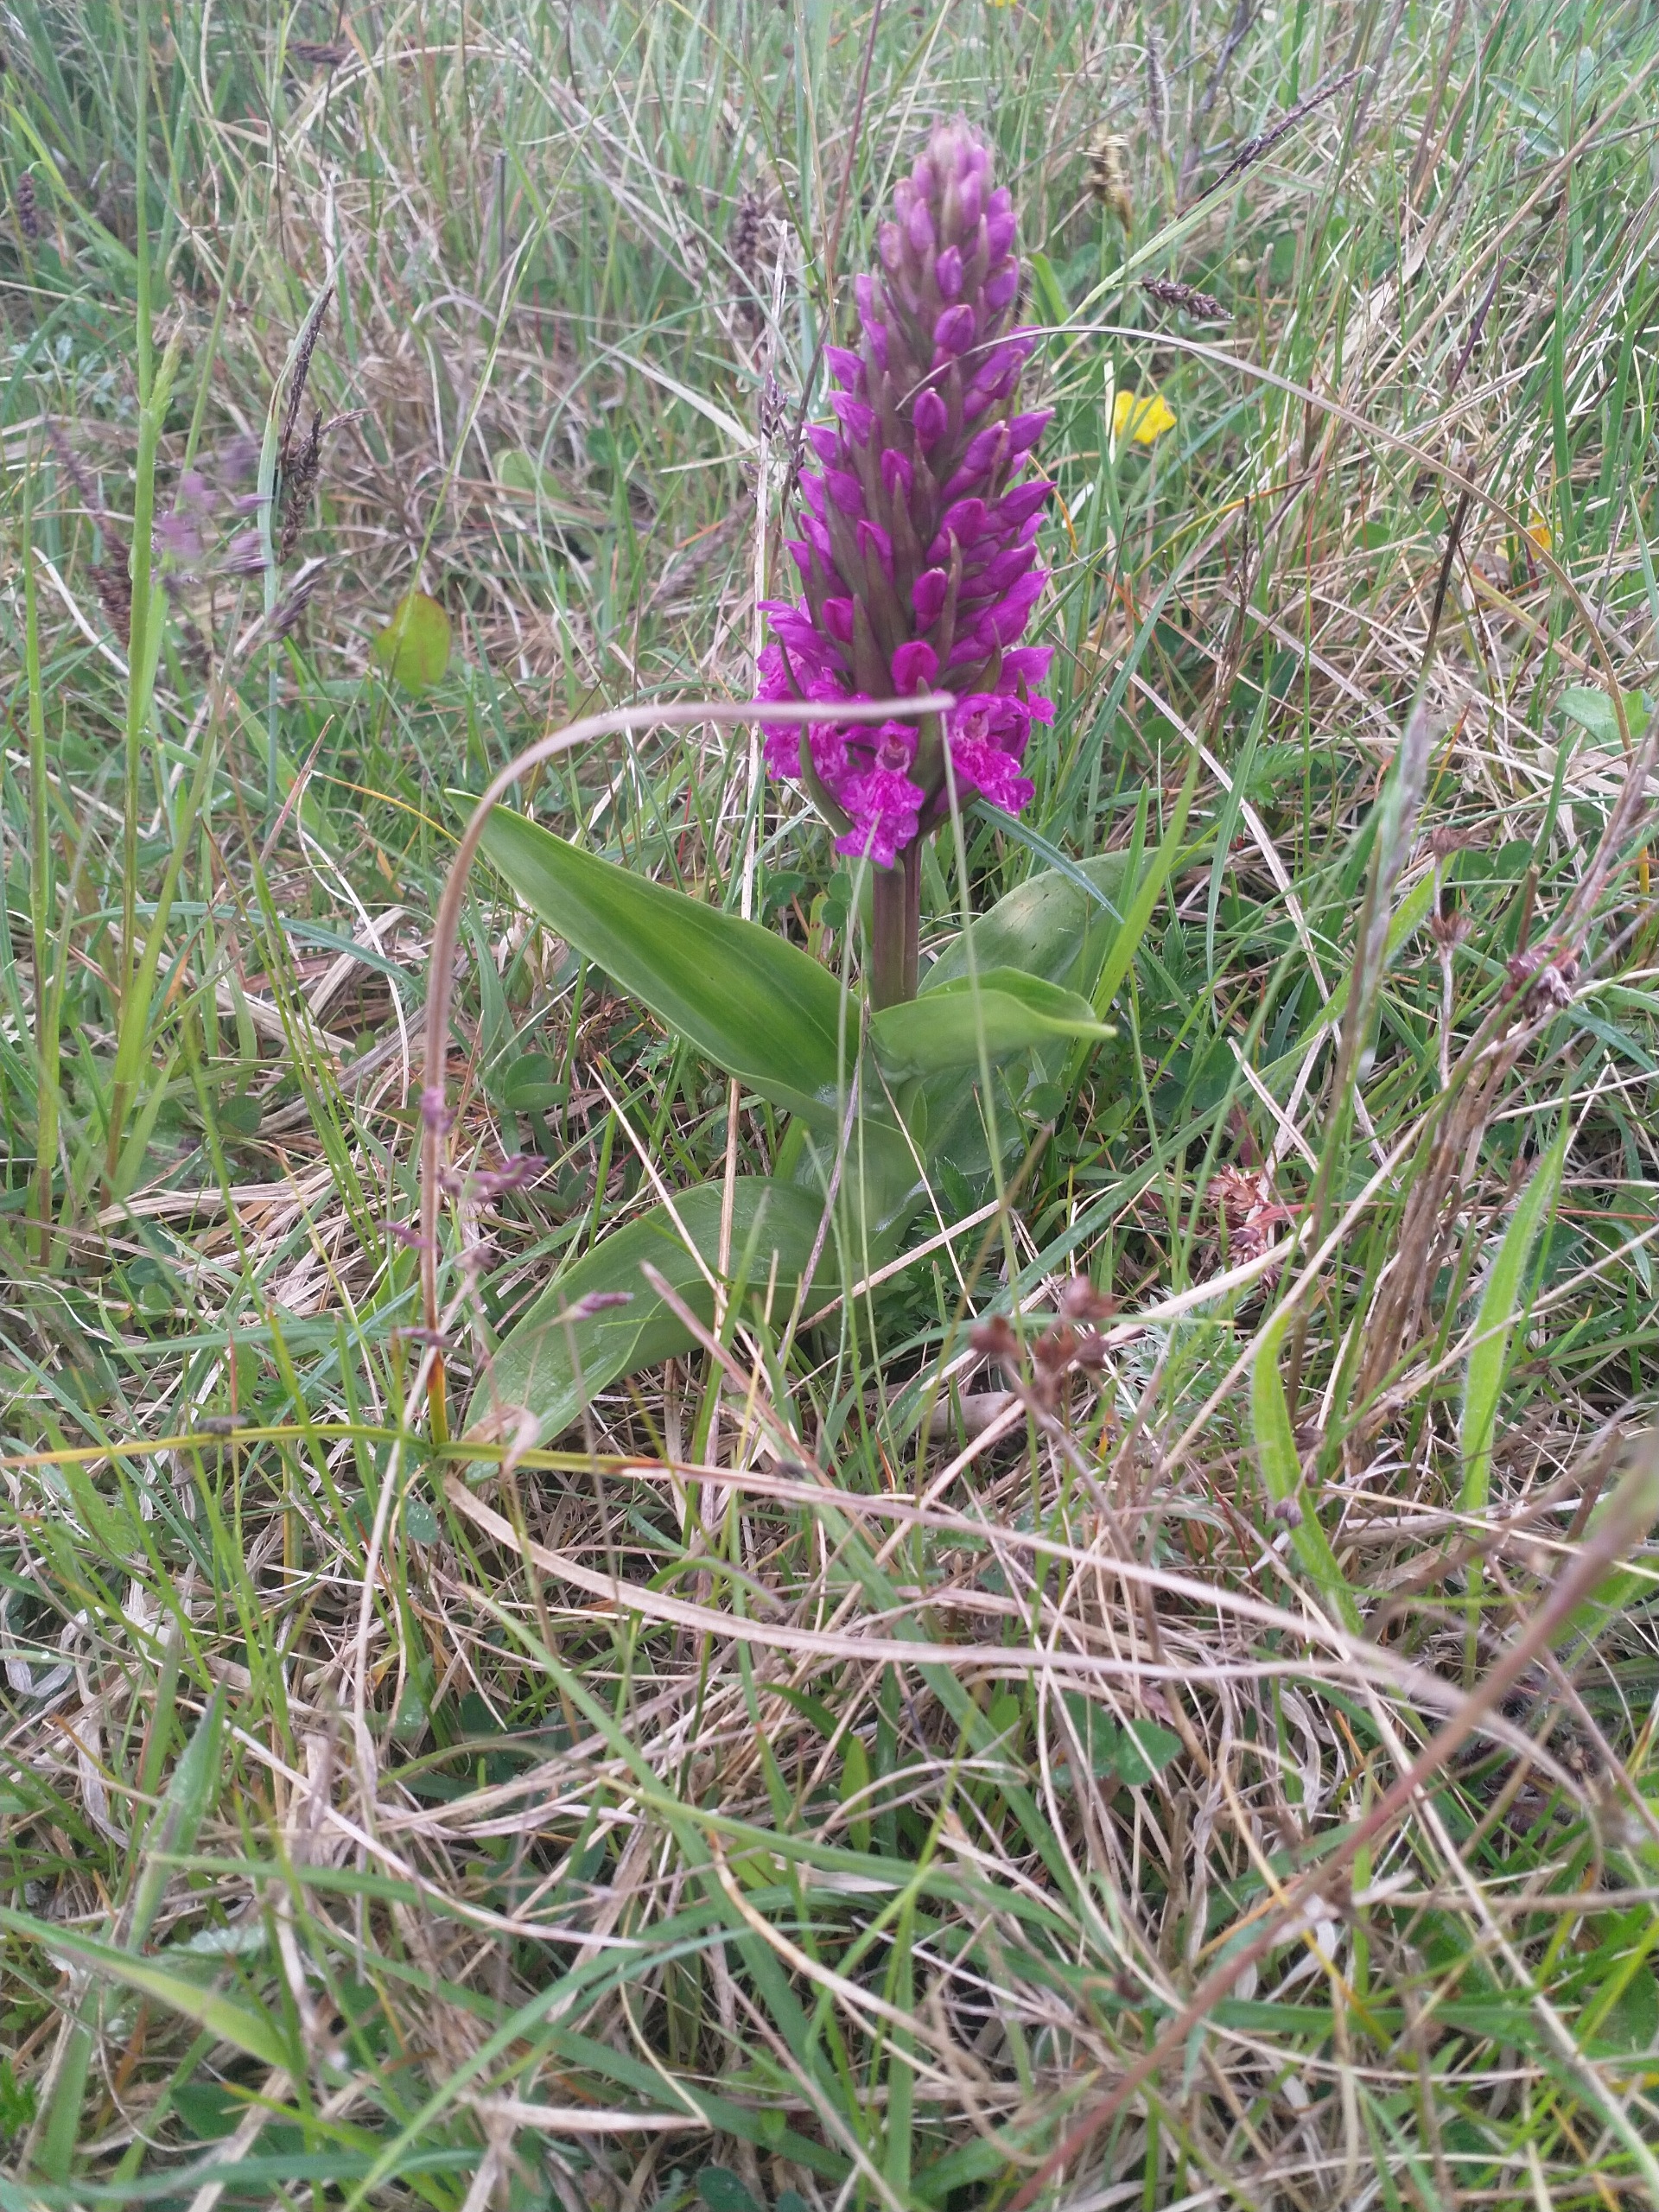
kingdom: Plantae
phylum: Tracheophyta
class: Liliopsida
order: Asparagales
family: Orchidaceae
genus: Dactylorhiza
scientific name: Dactylorhiza majalis
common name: Maj-gøgeurt
